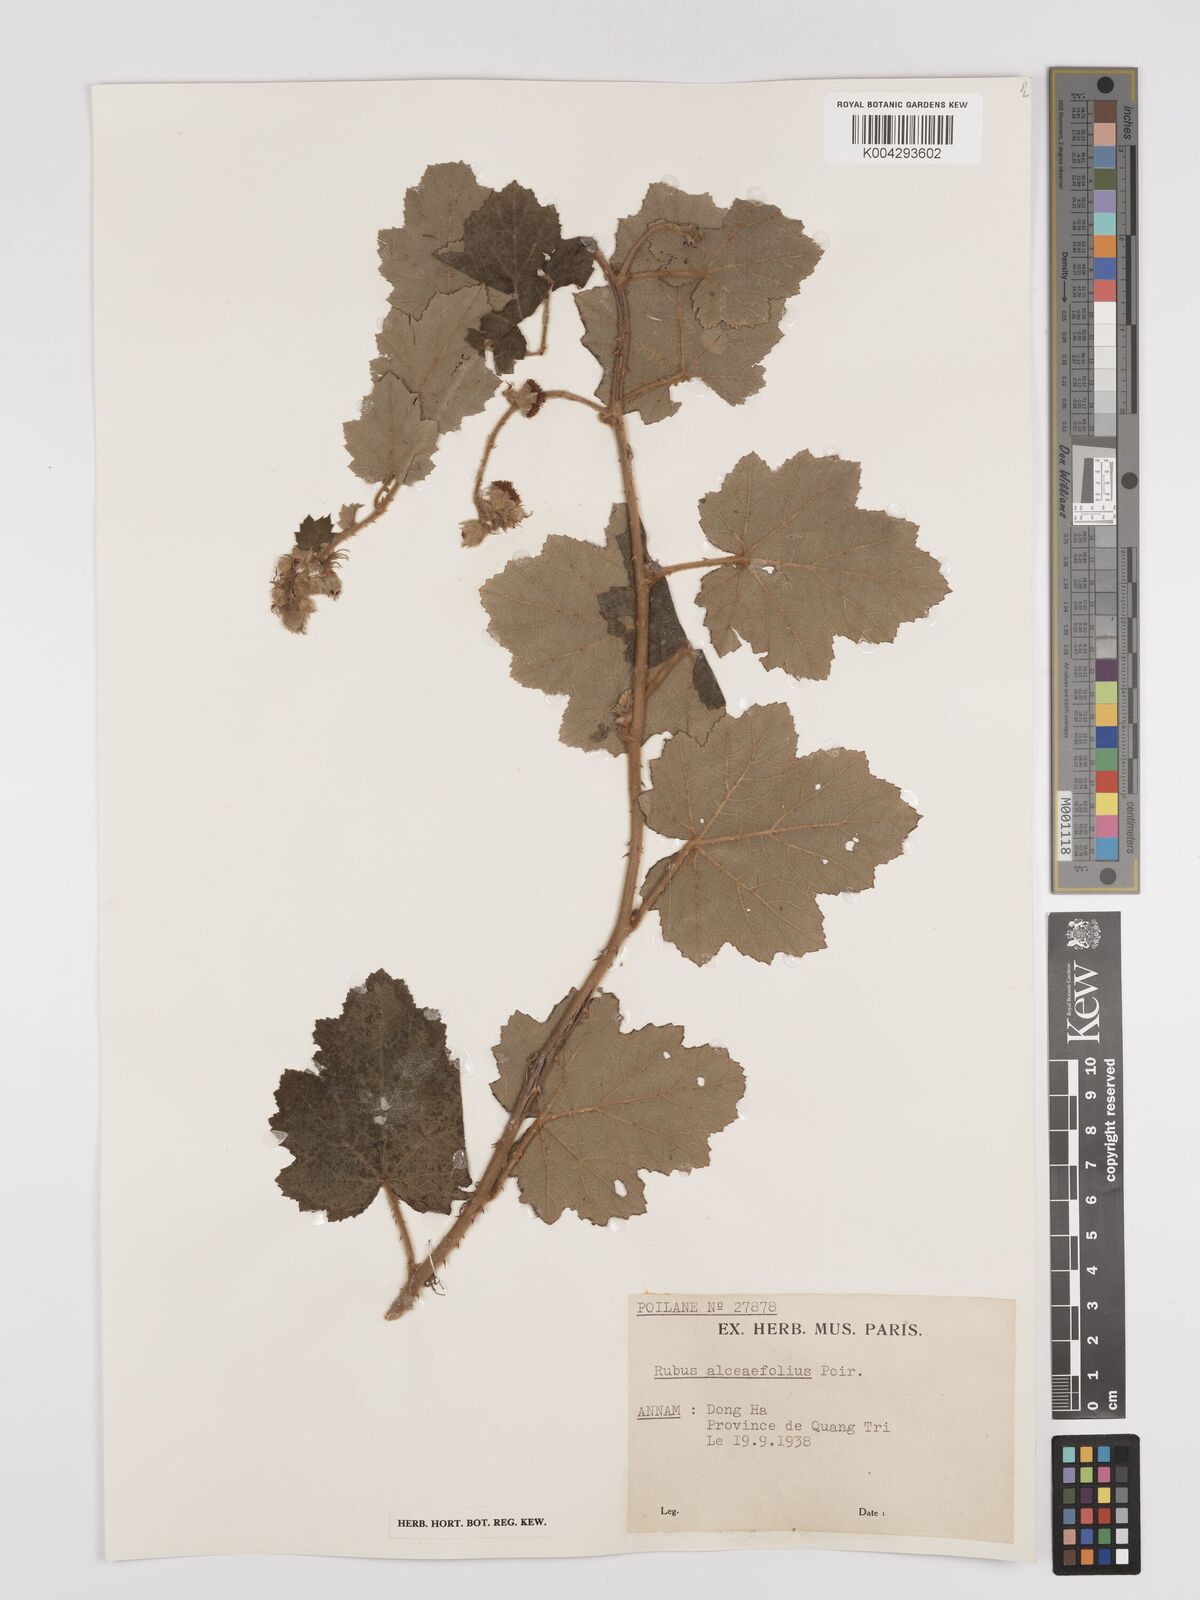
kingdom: Plantae
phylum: Tracheophyta
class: Magnoliopsida
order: Rosales
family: Rosaceae
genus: Rubus
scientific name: Rubus alceifolius
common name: Giant bramble
